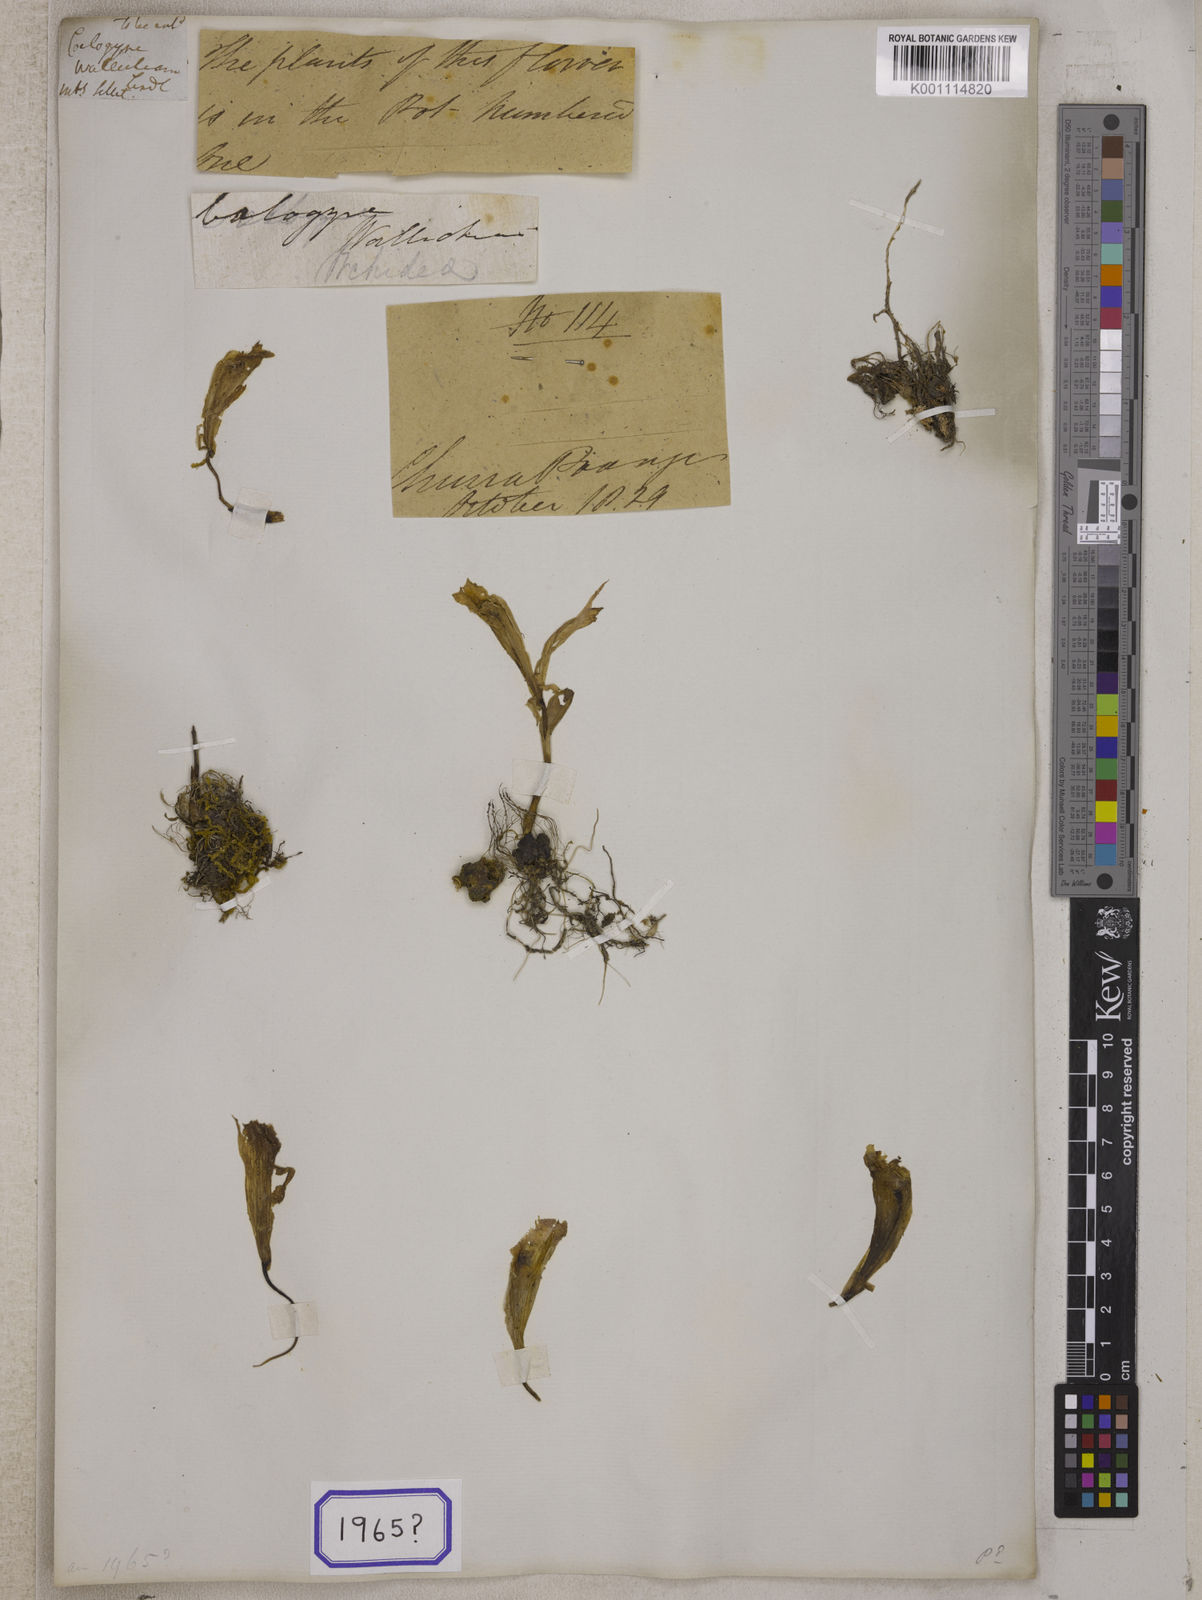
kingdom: Plantae
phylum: Tracheophyta
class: Liliopsida
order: Asparagales
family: Orchidaceae
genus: Pleione
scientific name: Pleione praecox
